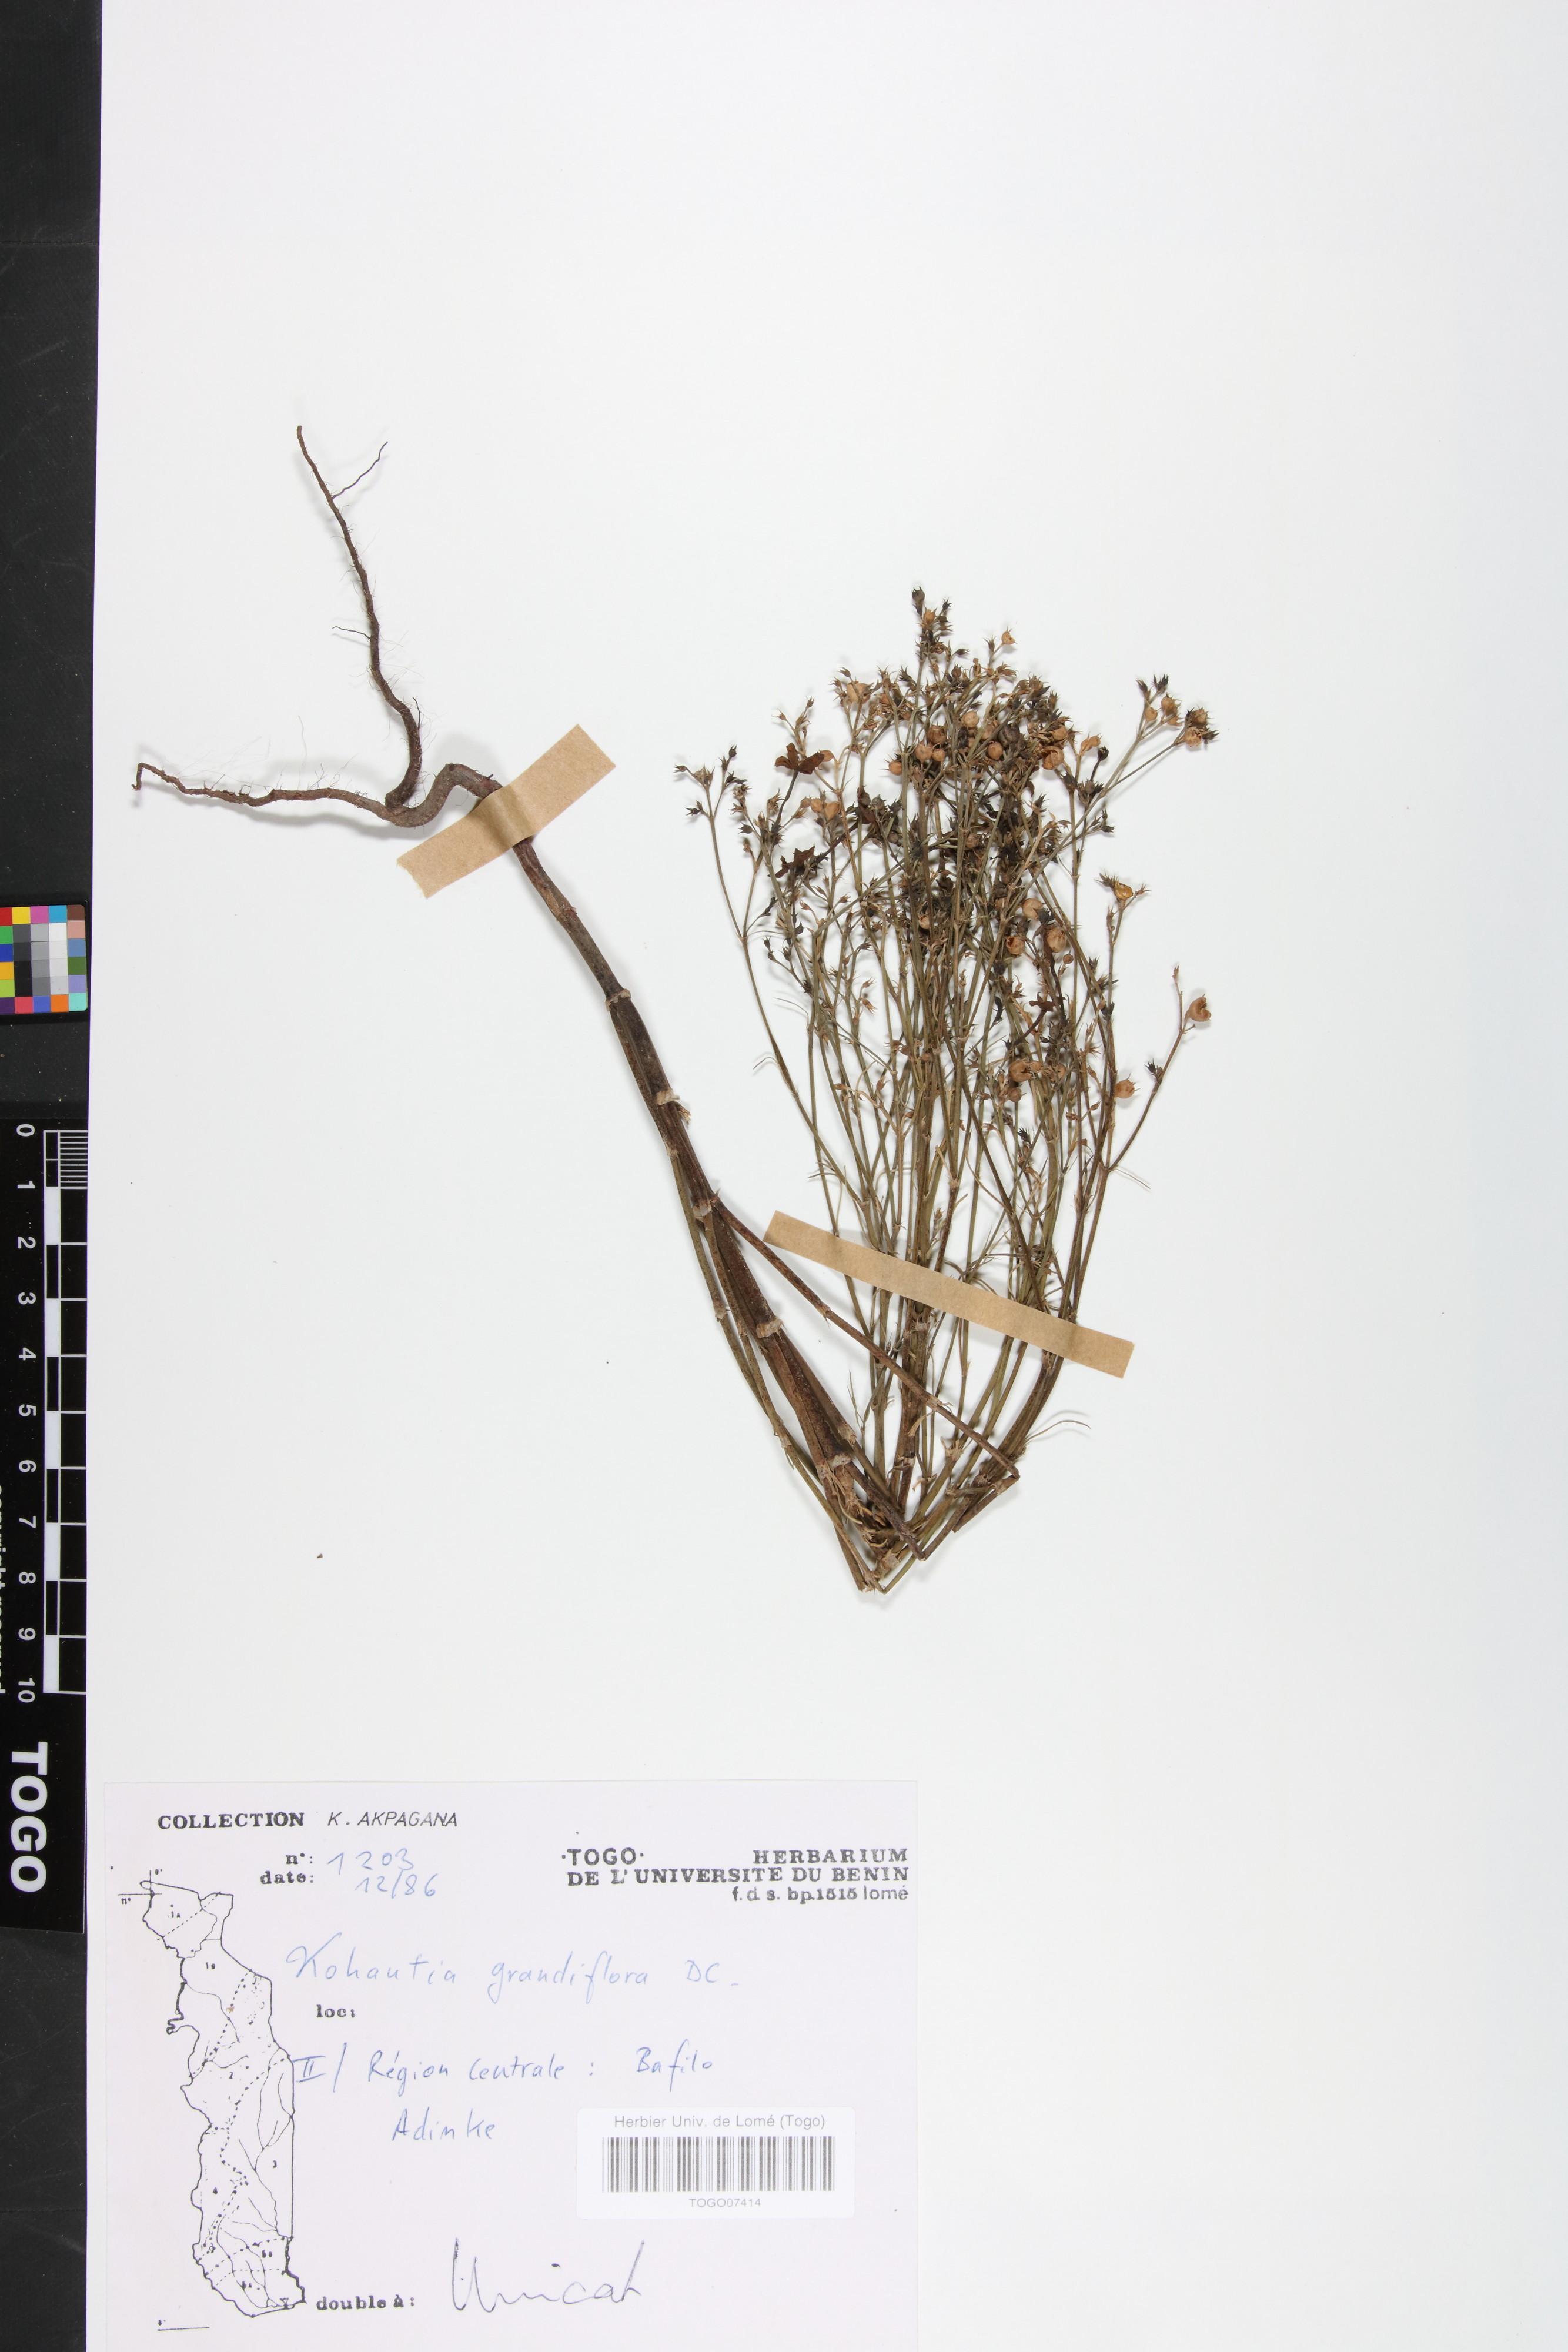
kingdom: Plantae
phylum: Tracheophyta
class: Magnoliopsida
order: Gentianales
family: Rubiaceae
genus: Kohautia
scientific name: Kohautia grandiflora
